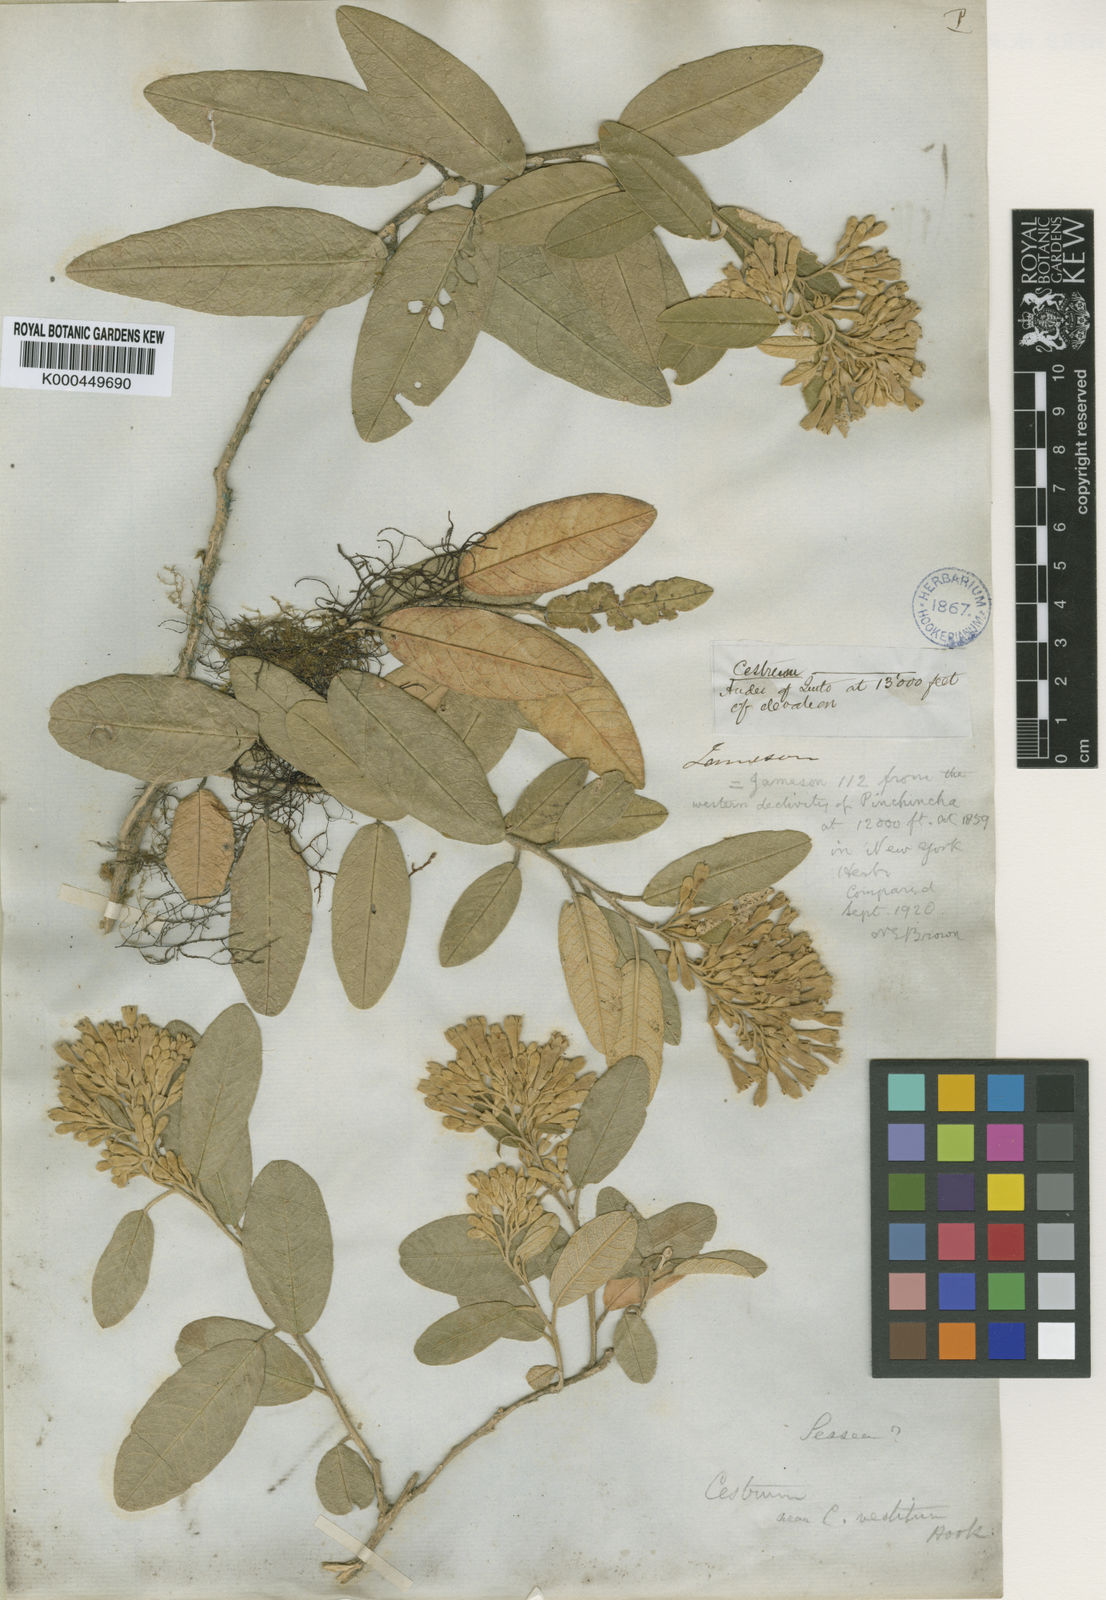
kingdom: Plantae
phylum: Tracheophyta
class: Magnoliopsida
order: Solanales
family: Solanaceae
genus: Sessea
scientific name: Sessea vestita
